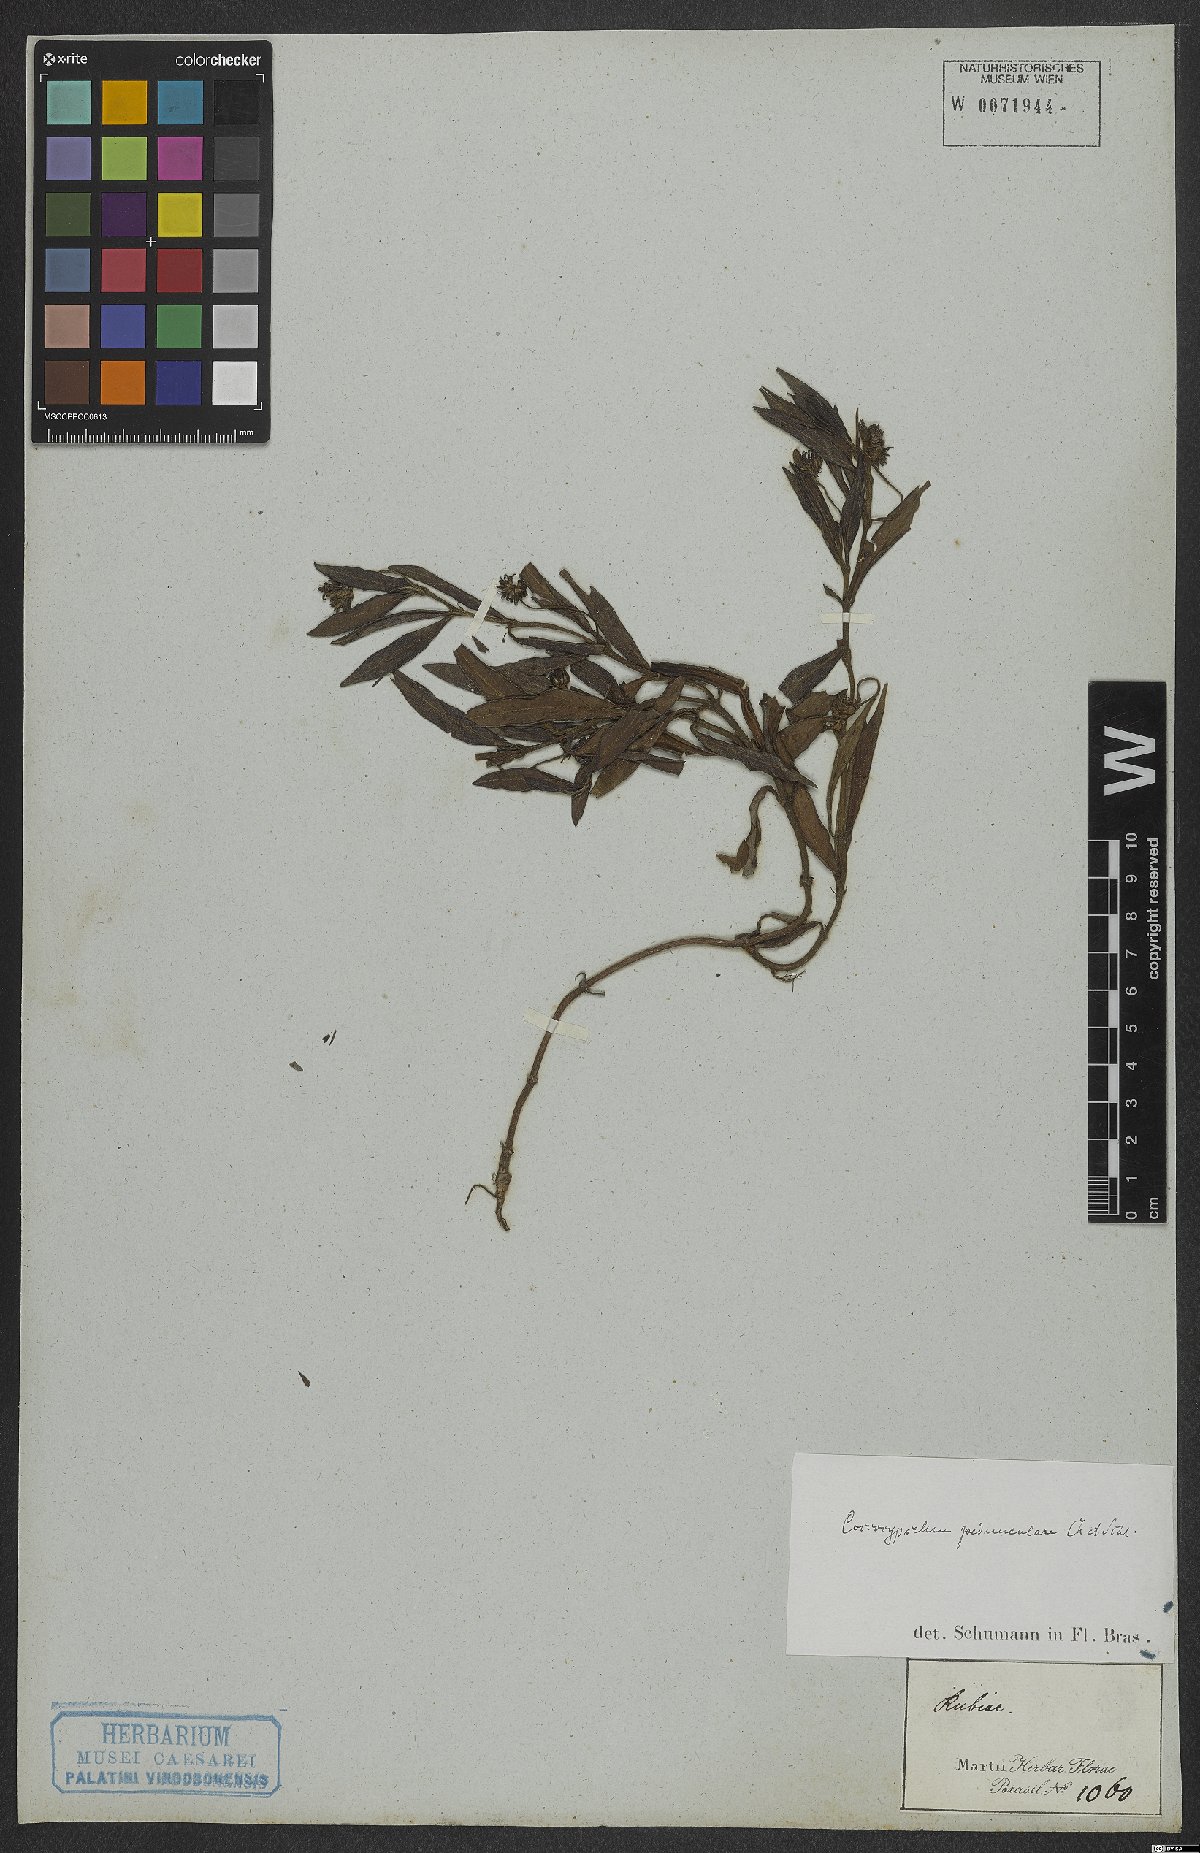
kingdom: Plantae
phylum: Tracheophyta
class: Magnoliopsida
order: Gentianales
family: Rubiaceae
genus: Coccocypselum
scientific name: Coccocypselum pedunculare
